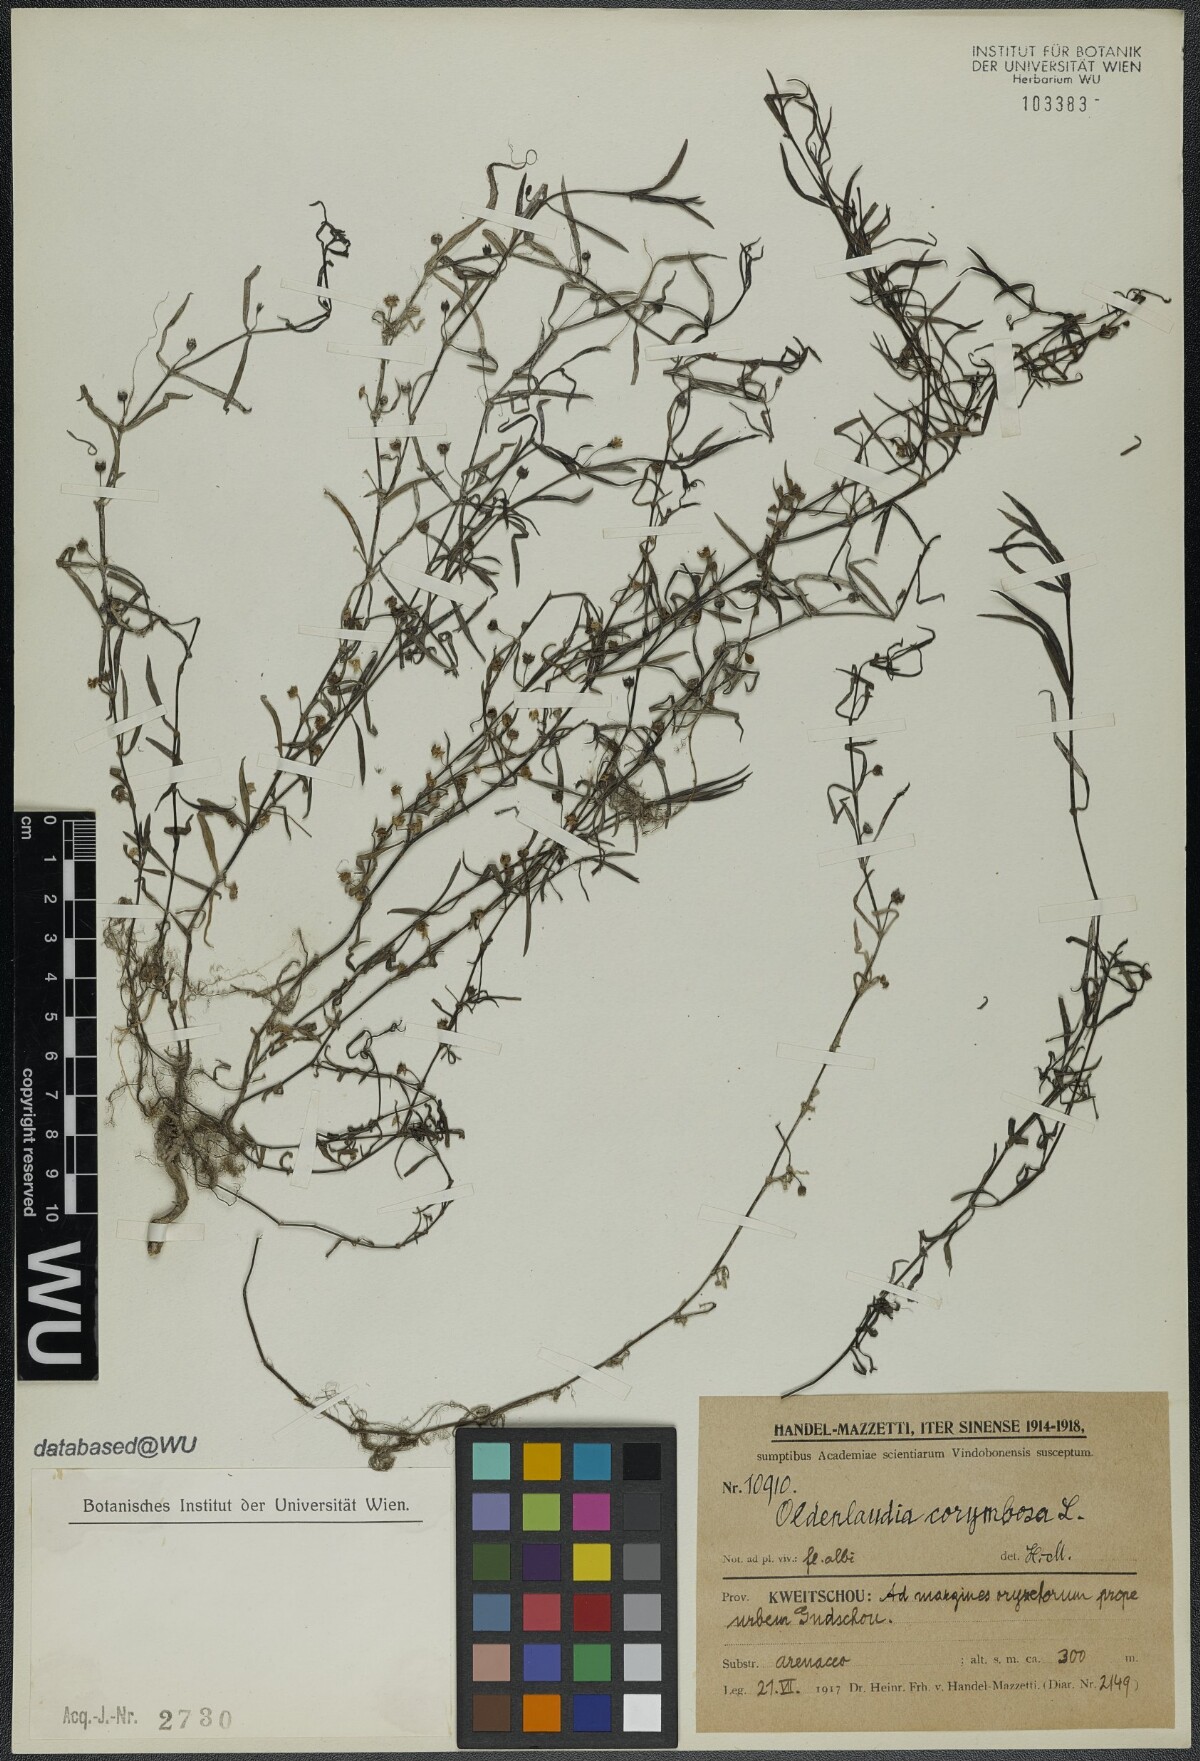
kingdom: Plantae
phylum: Tracheophyta
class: Magnoliopsida
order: Gentianales
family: Rubiaceae
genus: Oldenlandia
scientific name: Oldenlandia corymbosa
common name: Flat-top mille graines
